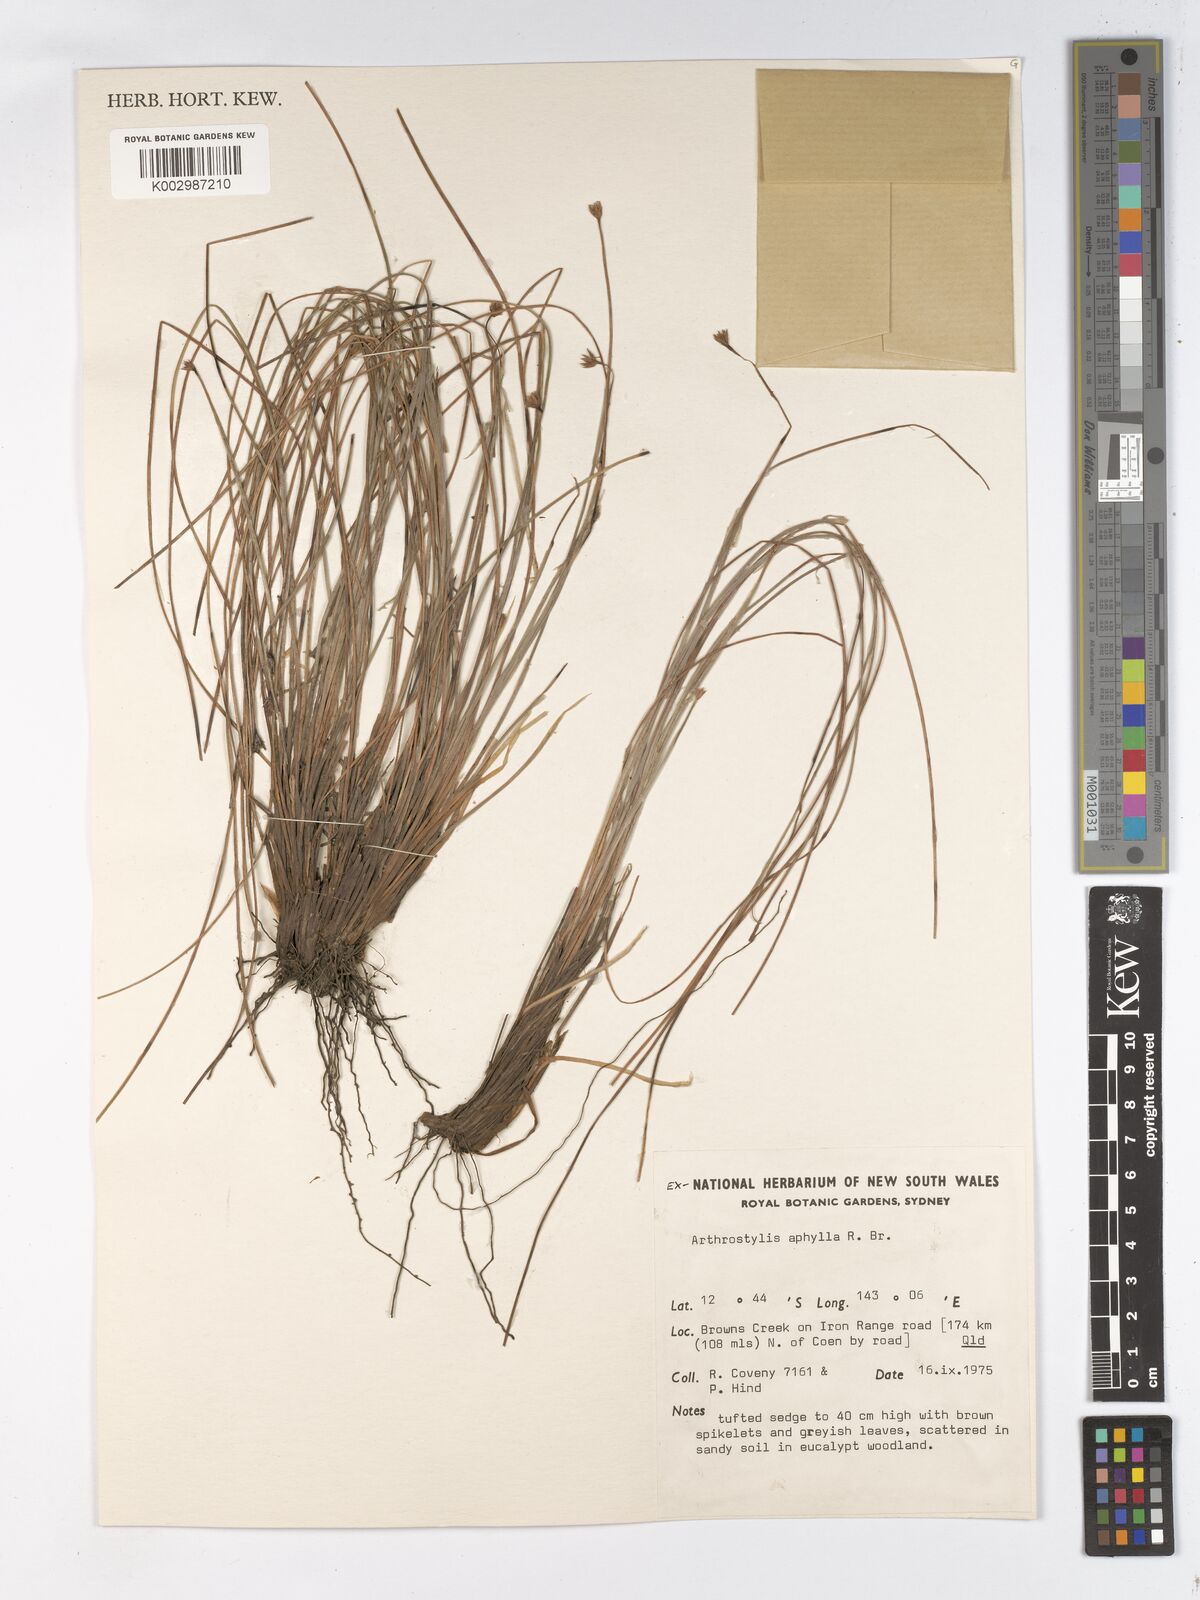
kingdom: Plantae
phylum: Tracheophyta
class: Liliopsida
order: Poales
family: Cyperaceae
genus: Arthrostylis
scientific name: Arthrostylis aphylla
